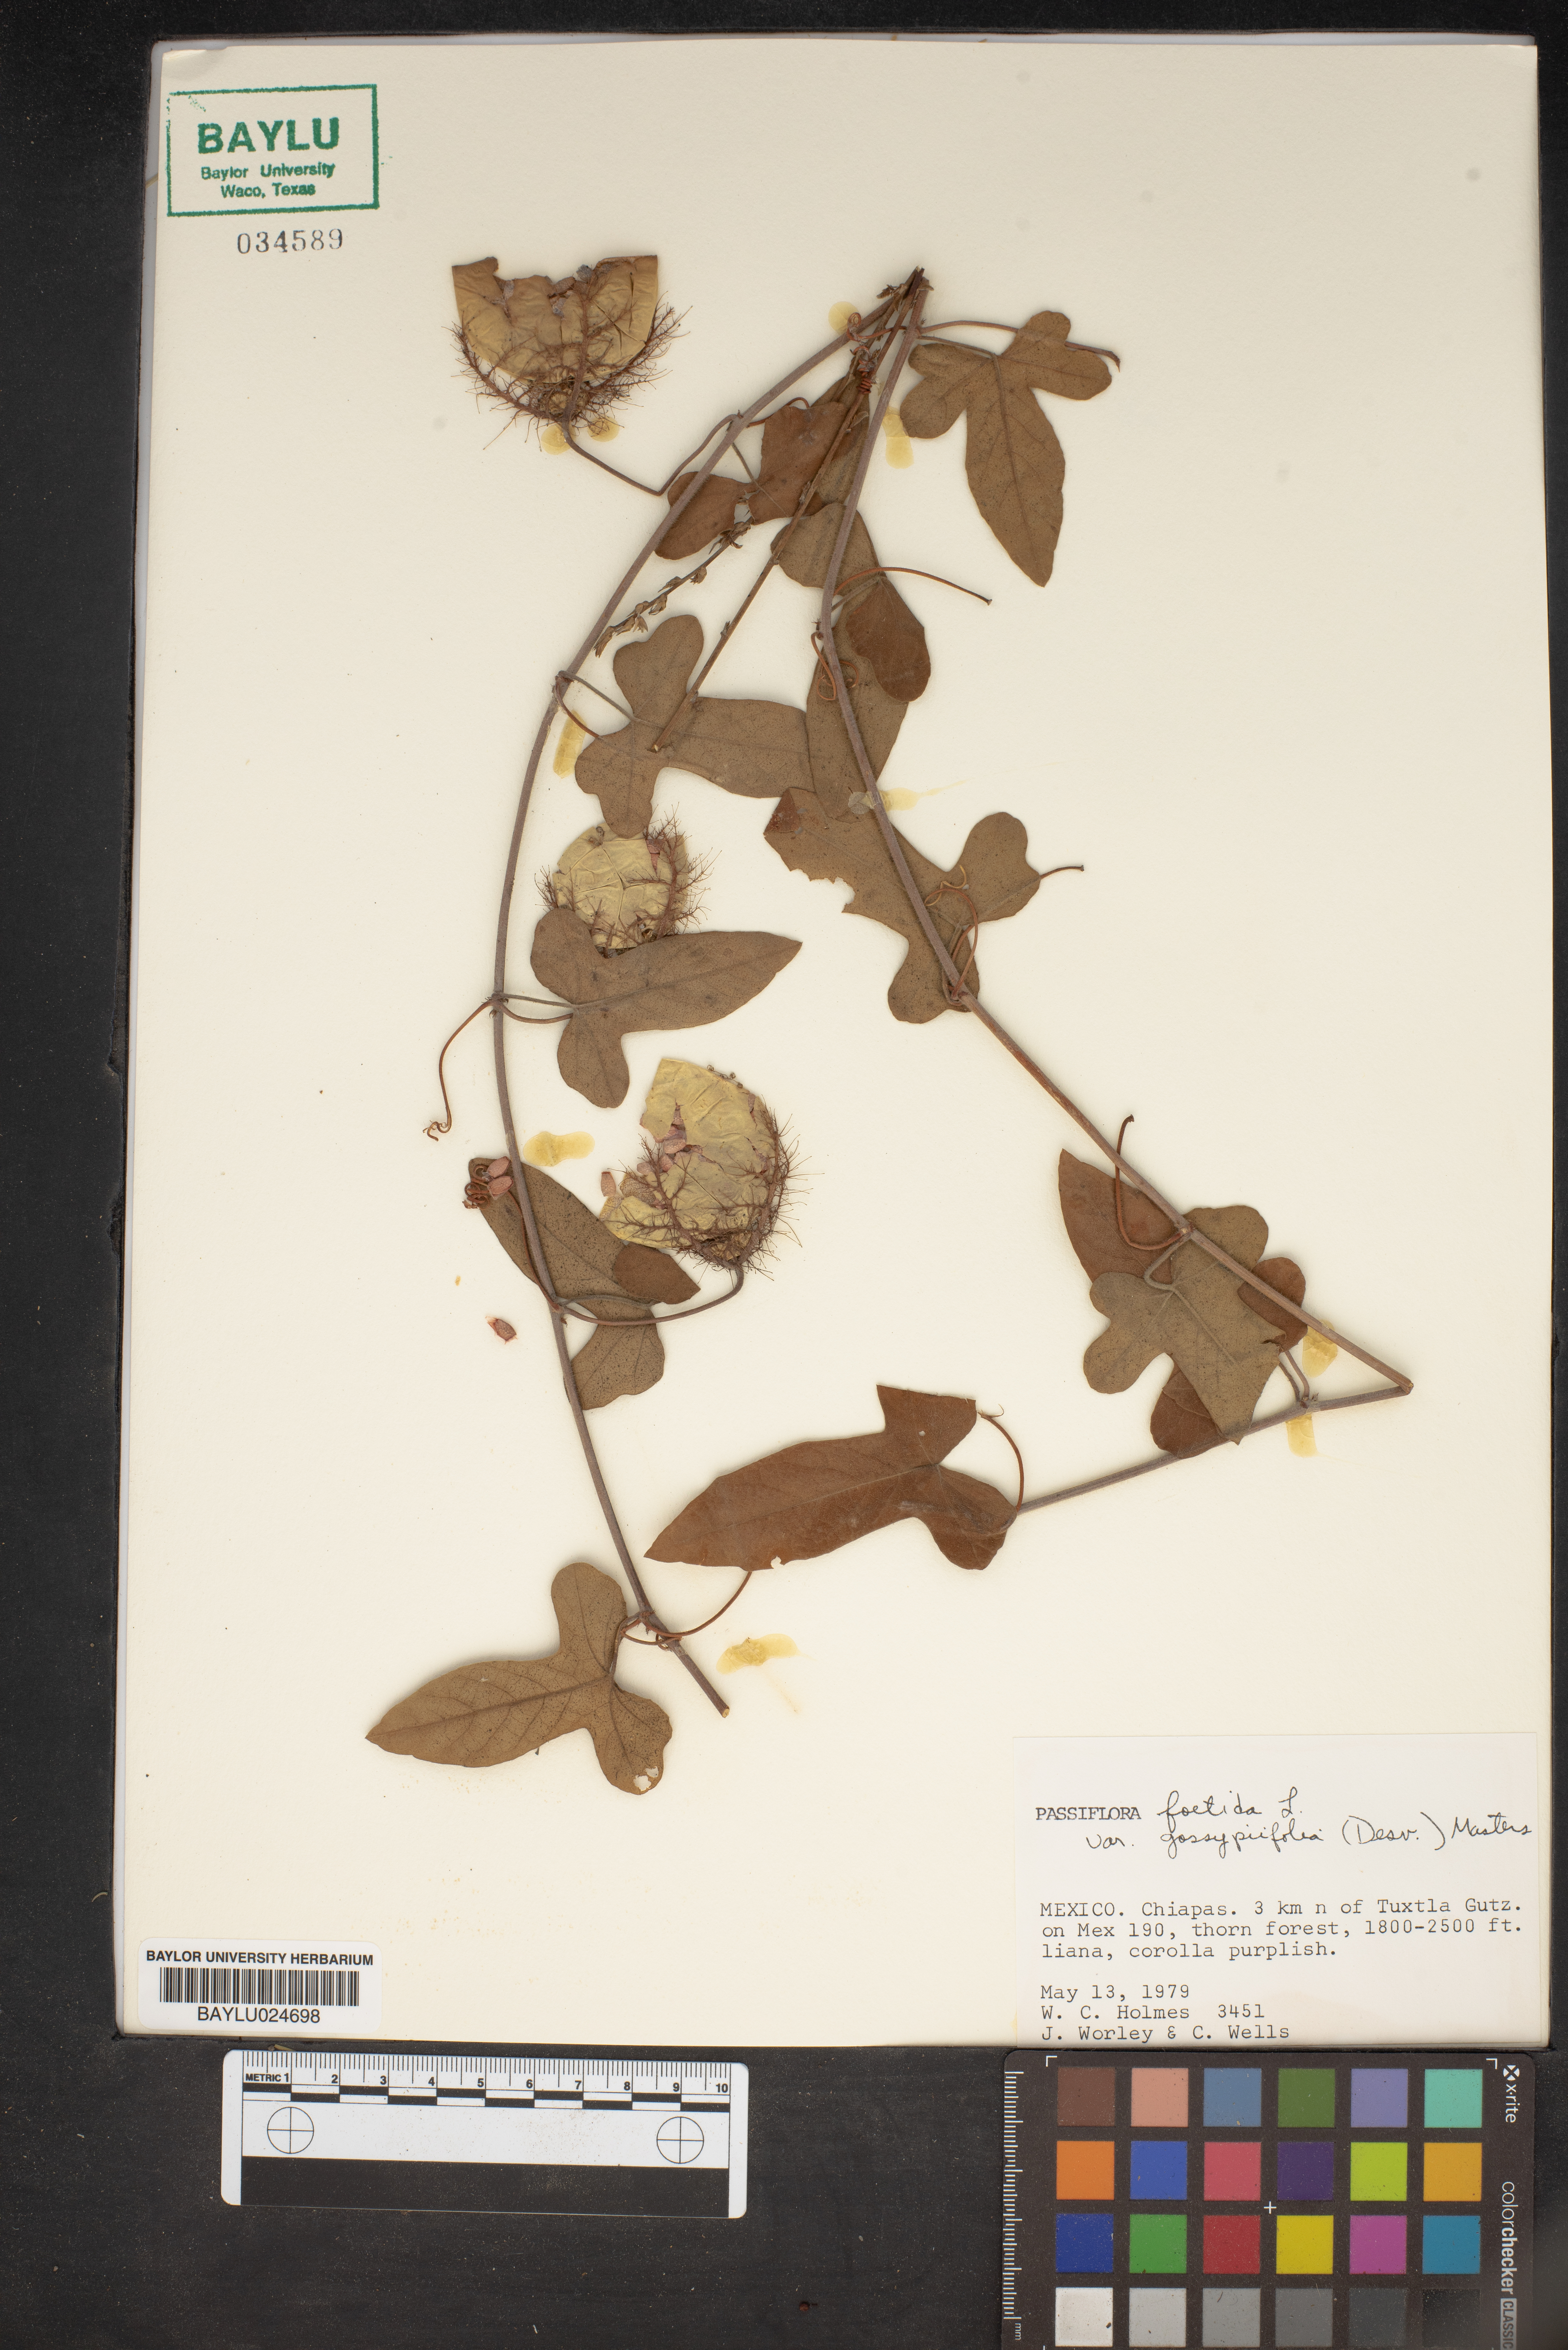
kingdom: Plantae
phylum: Tracheophyta
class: Magnoliopsida
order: Malpighiales
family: Passifloraceae
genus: Passiflora
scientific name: Passiflora foetida
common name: Fetid passionflower
